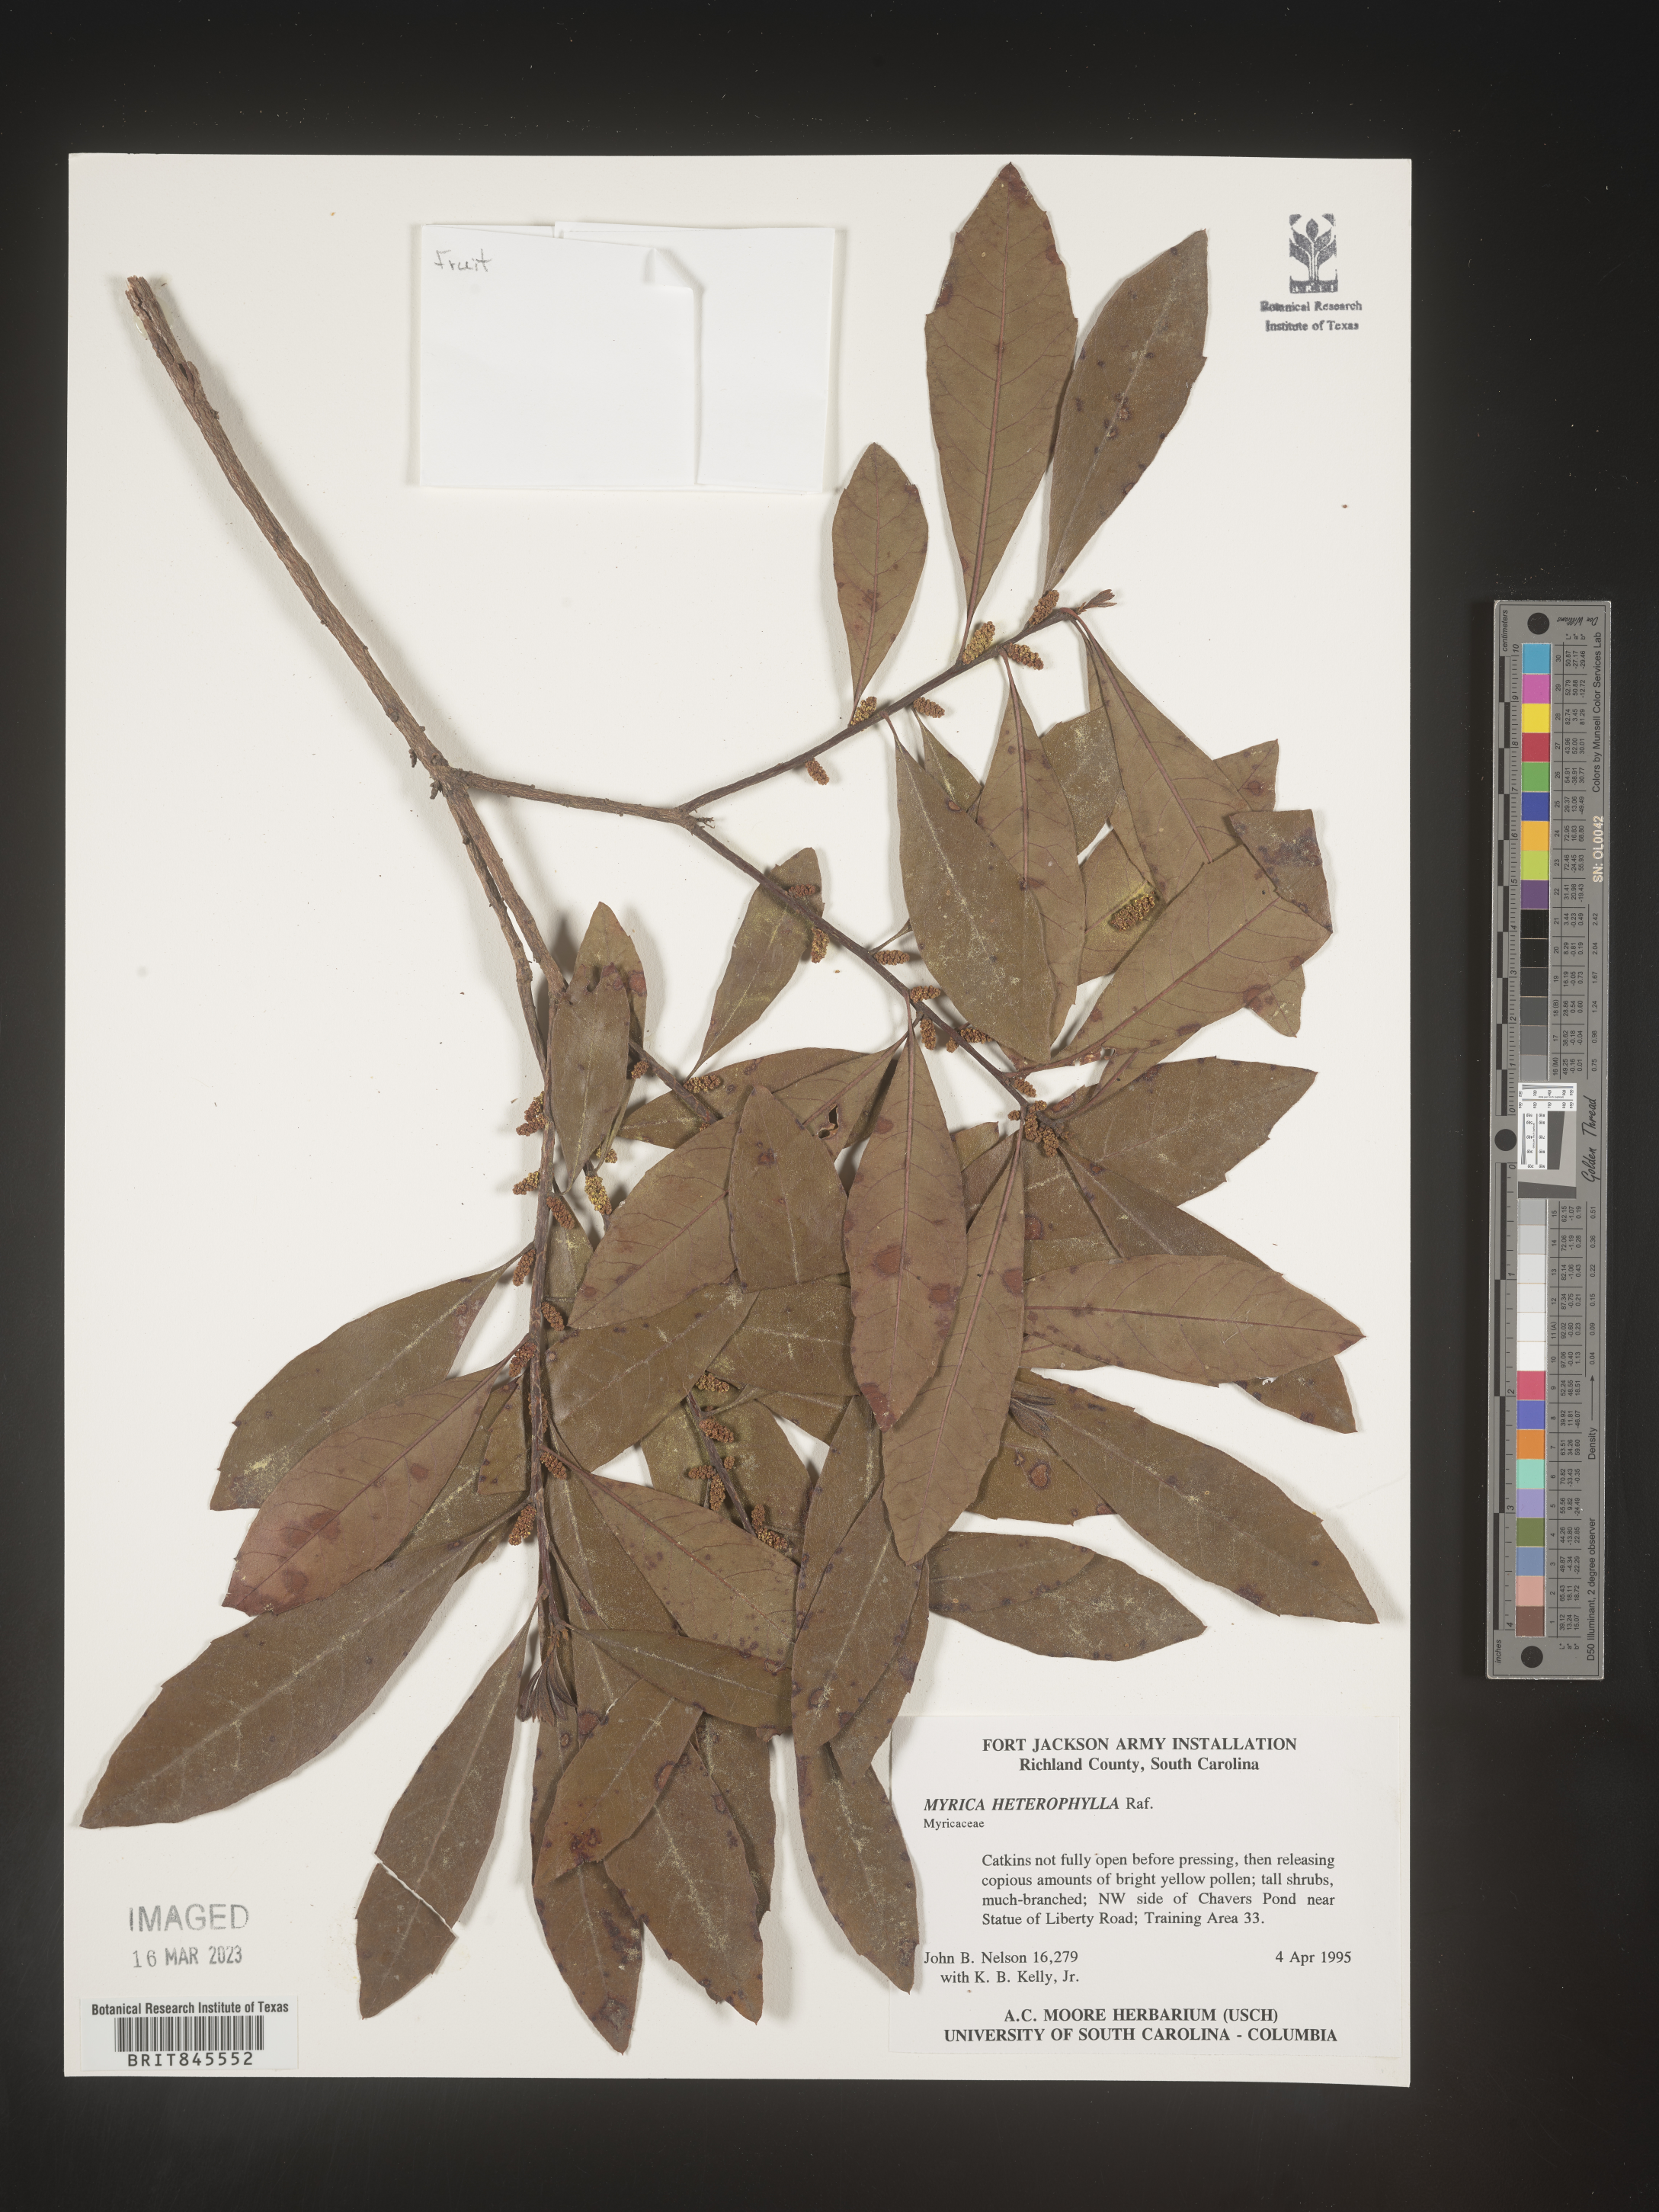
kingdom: Plantae
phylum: Tracheophyta
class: Magnoliopsida
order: Fagales
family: Myricaceae
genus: Morella
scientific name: Morella caroliniensis
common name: Evergreen bayberry
